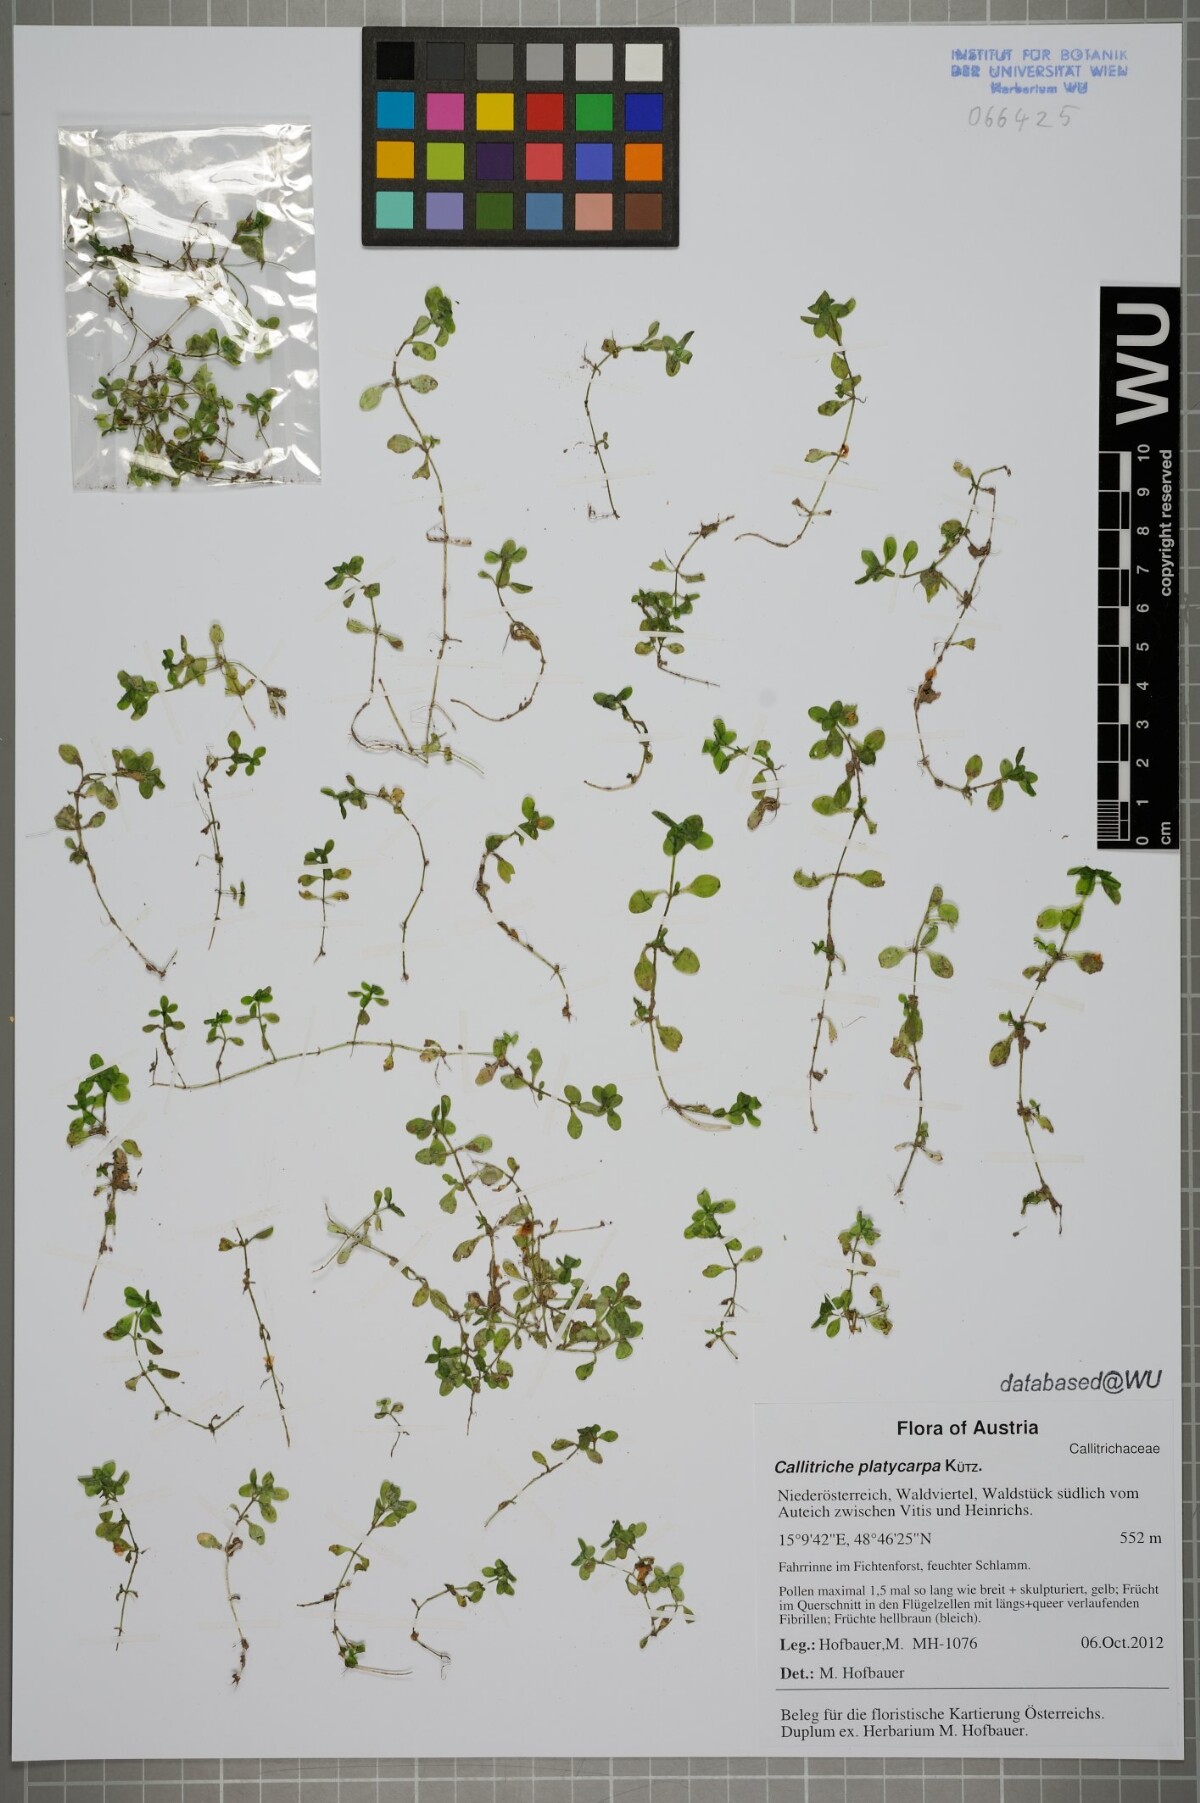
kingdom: Plantae
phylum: Tracheophyta
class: Magnoliopsida
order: Lamiales
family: Plantaginaceae
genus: Callitriche
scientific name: Callitriche stagnalis
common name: Common water-starwort
